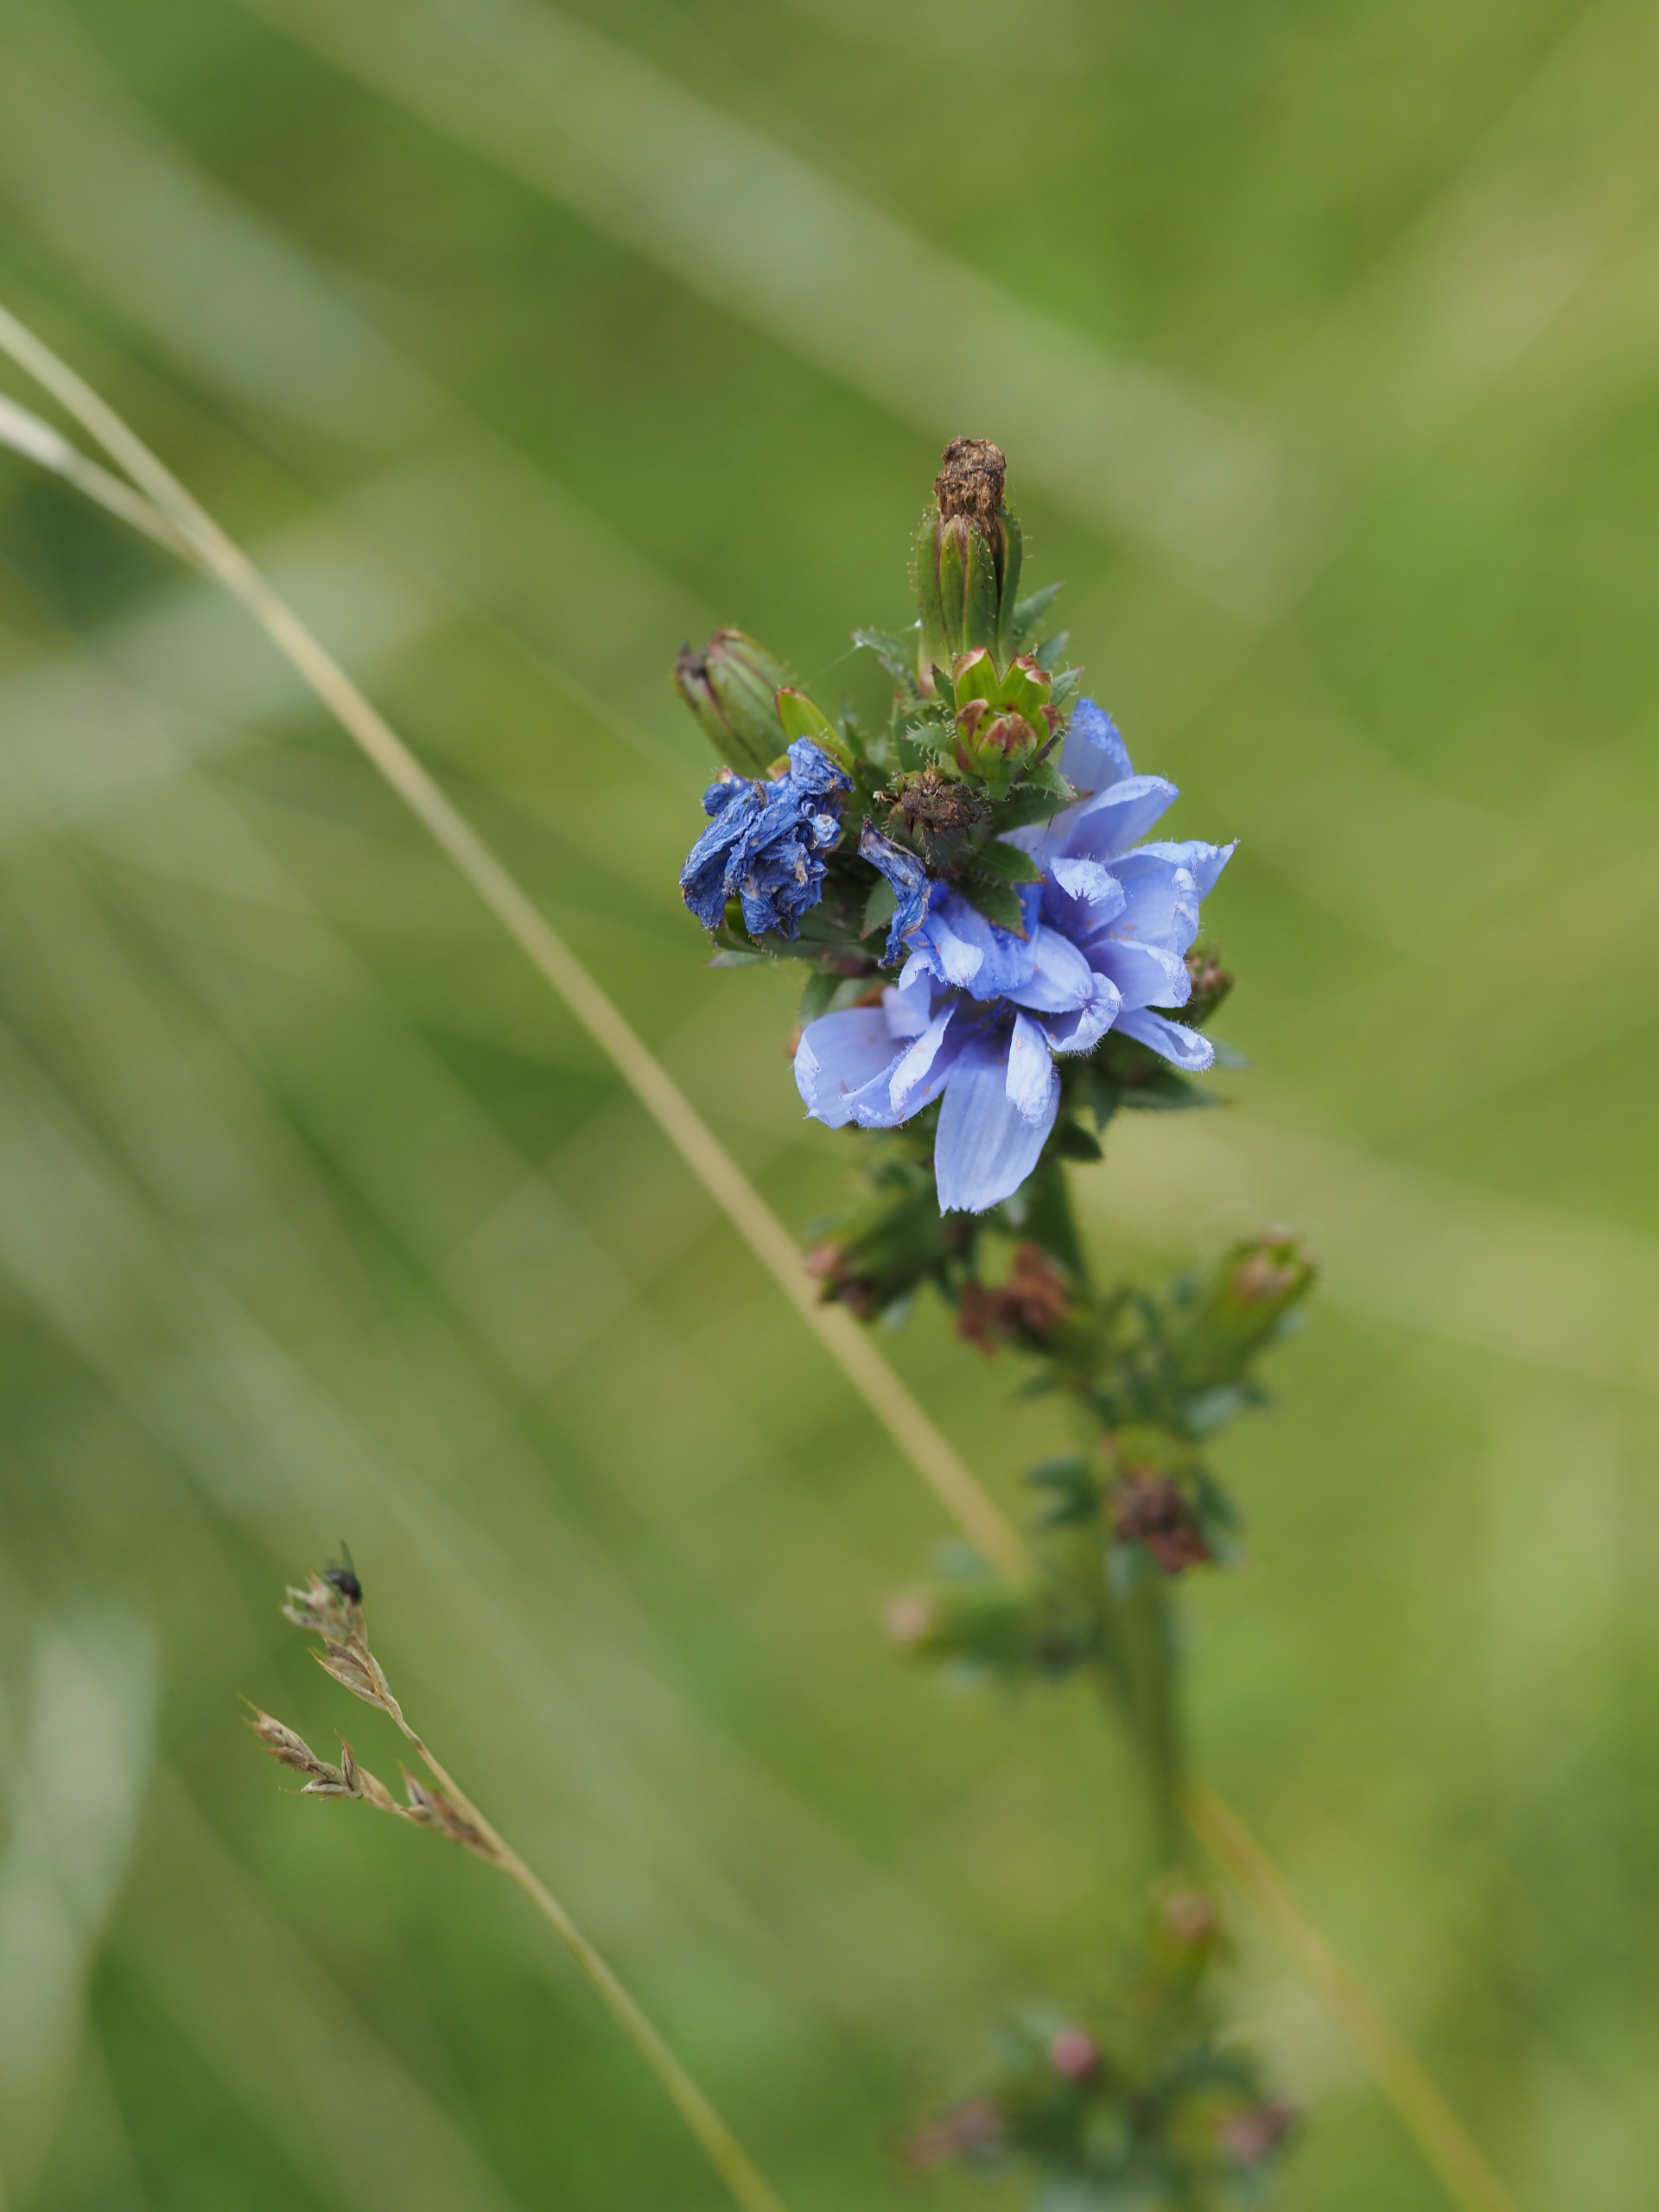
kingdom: Plantae
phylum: Tracheophyta
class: Magnoliopsida
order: Asterales
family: Asteraceae
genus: Cichorium
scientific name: Cichorium intybus
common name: Cikorie
